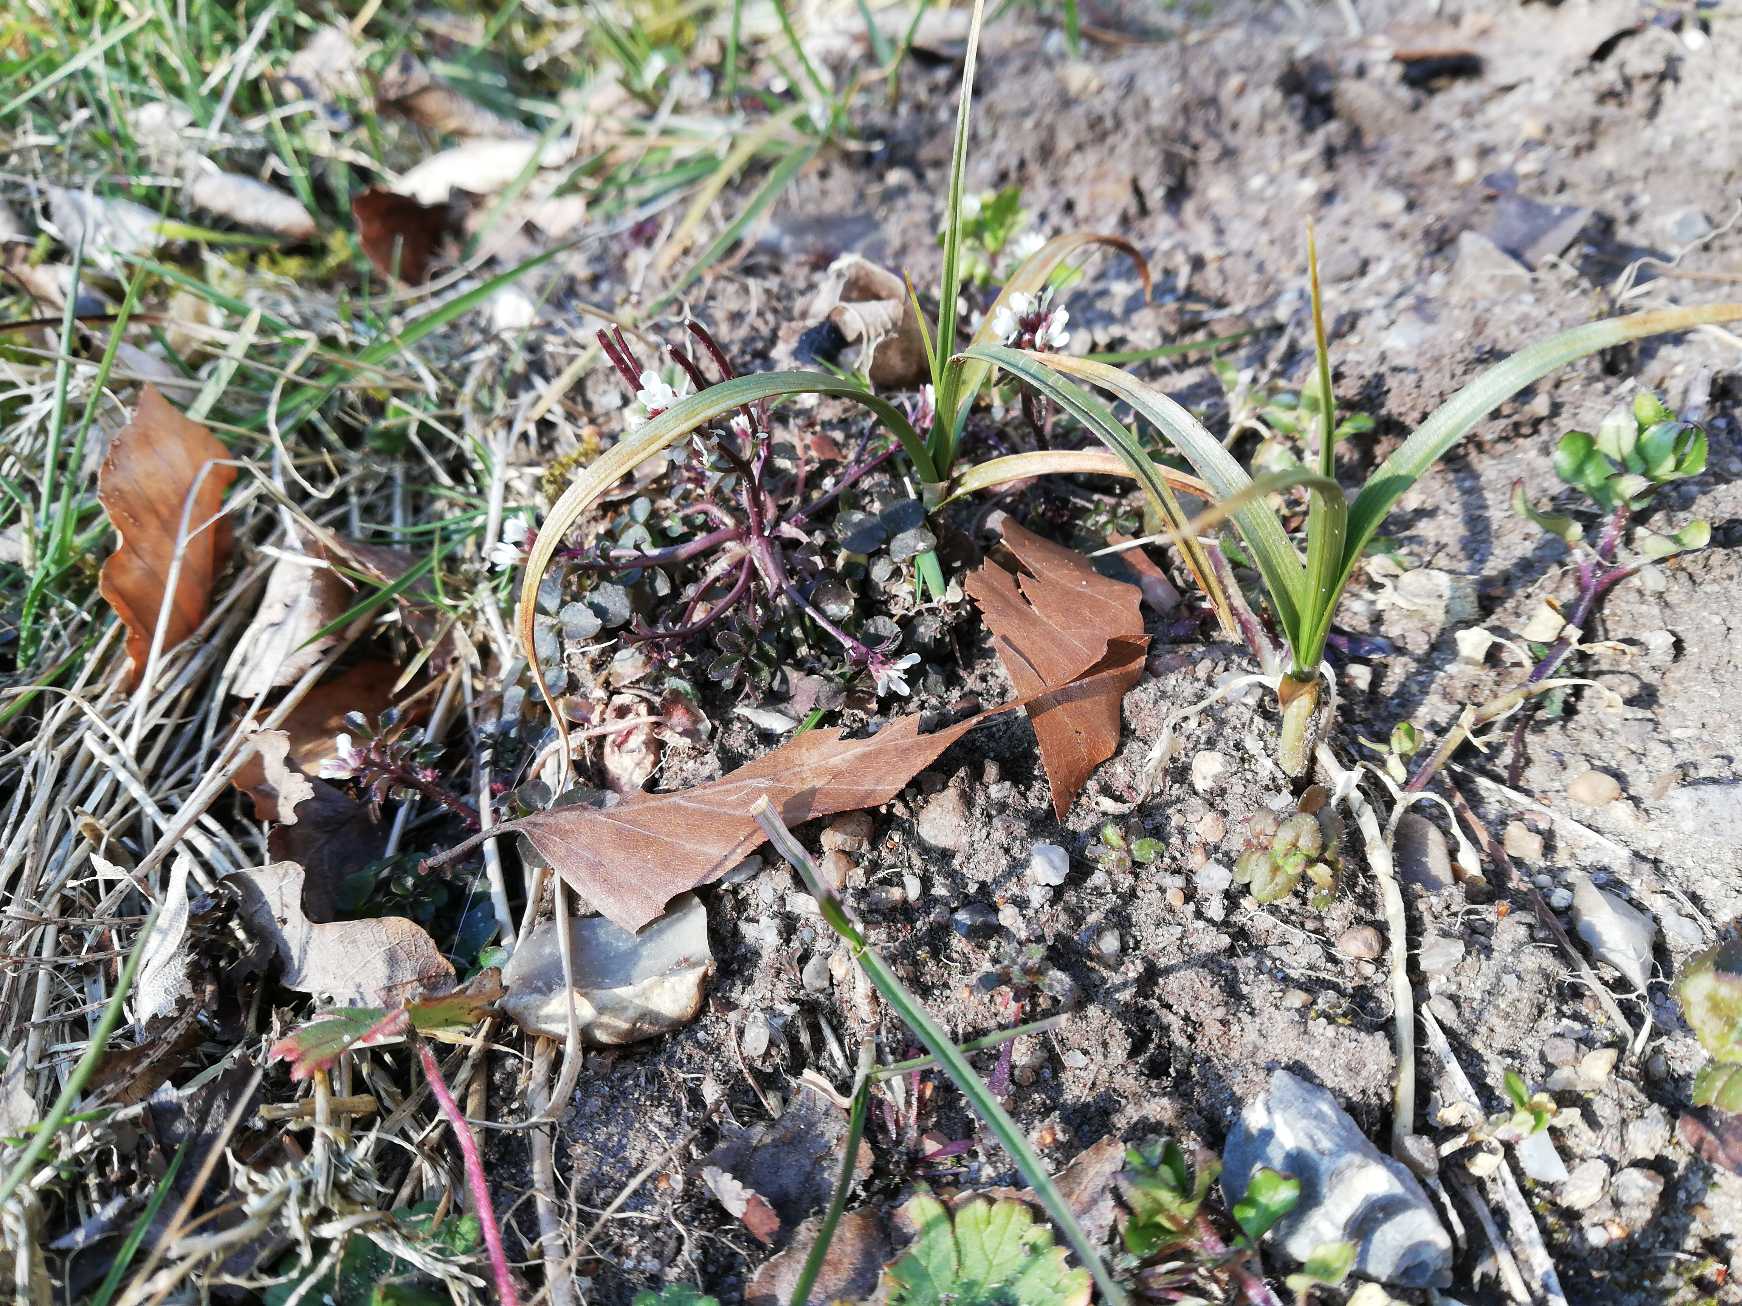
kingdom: Plantae
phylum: Tracheophyta
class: Liliopsida
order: Poales
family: Cyperaceae
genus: Carex
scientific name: Carex arenaria
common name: Sand-star
